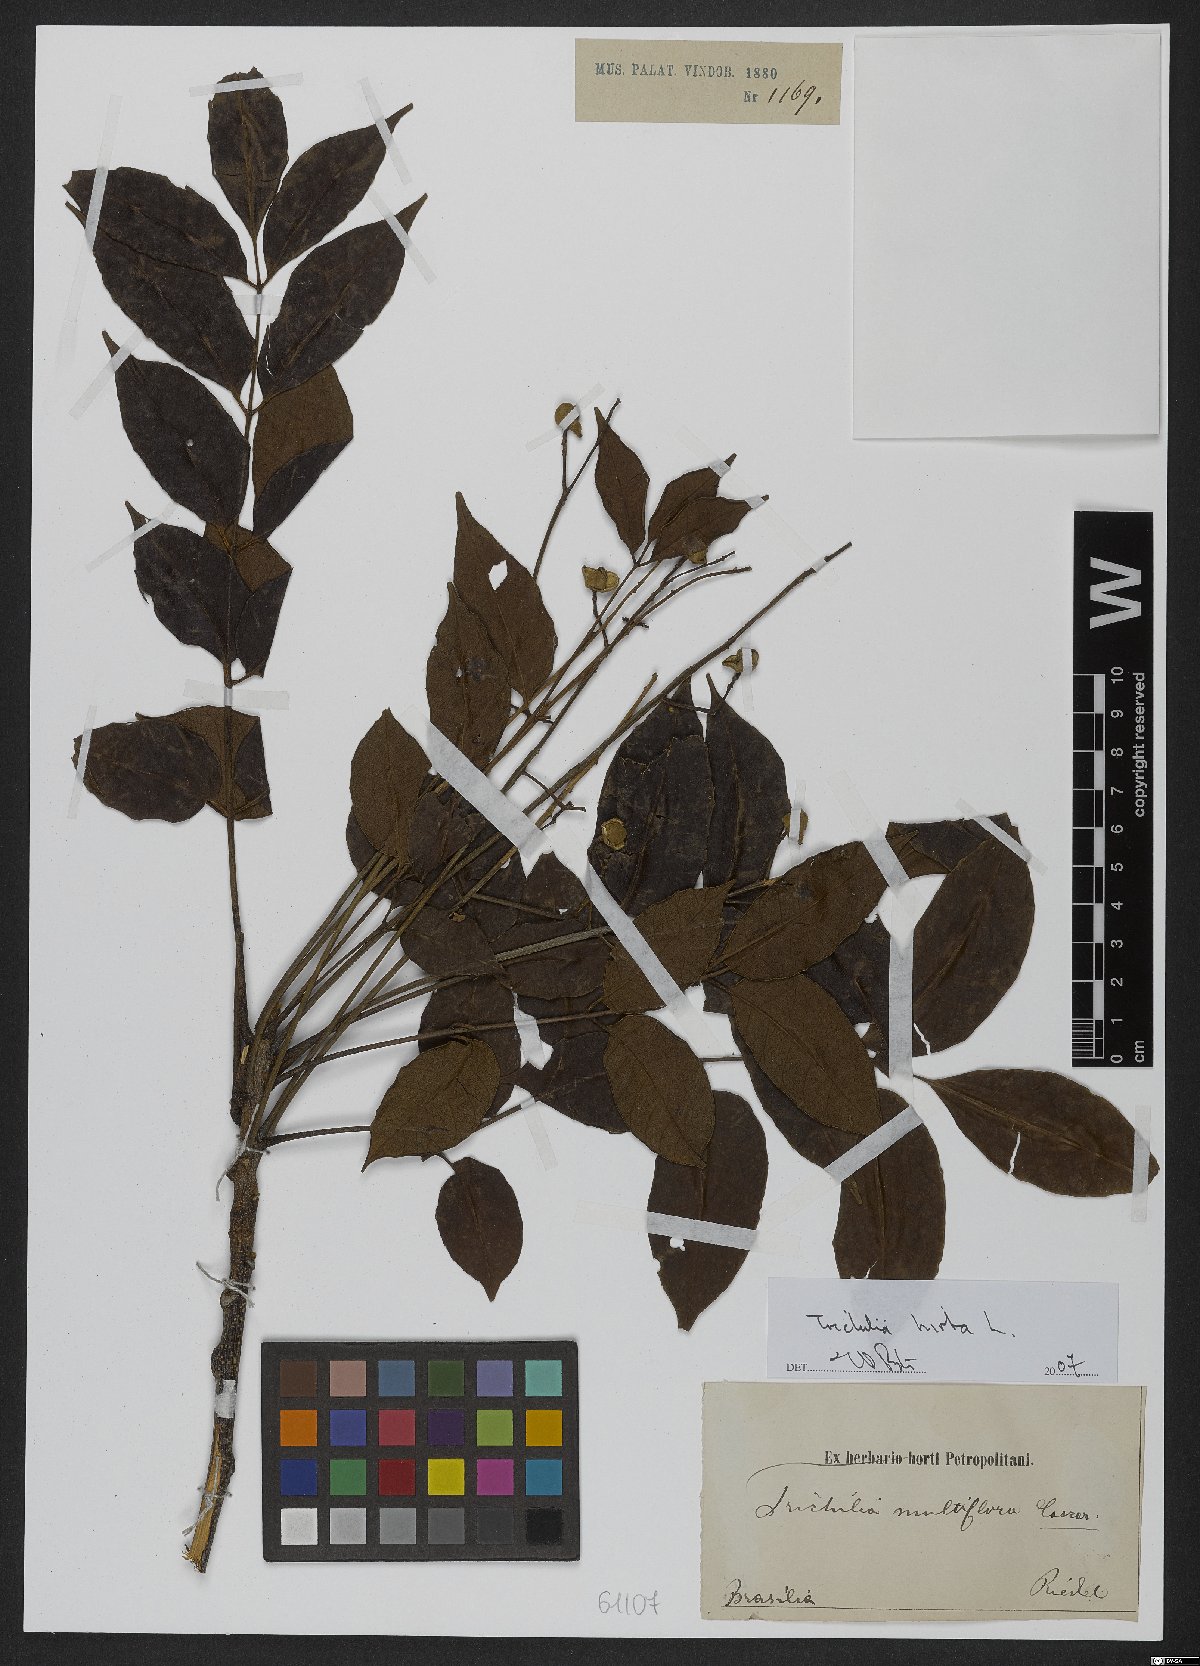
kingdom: Plantae
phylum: Tracheophyta
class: Magnoliopsida
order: Sapindales
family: Meliaceae
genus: Trichilia
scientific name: Trichilia hirta
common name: Red-cedar
